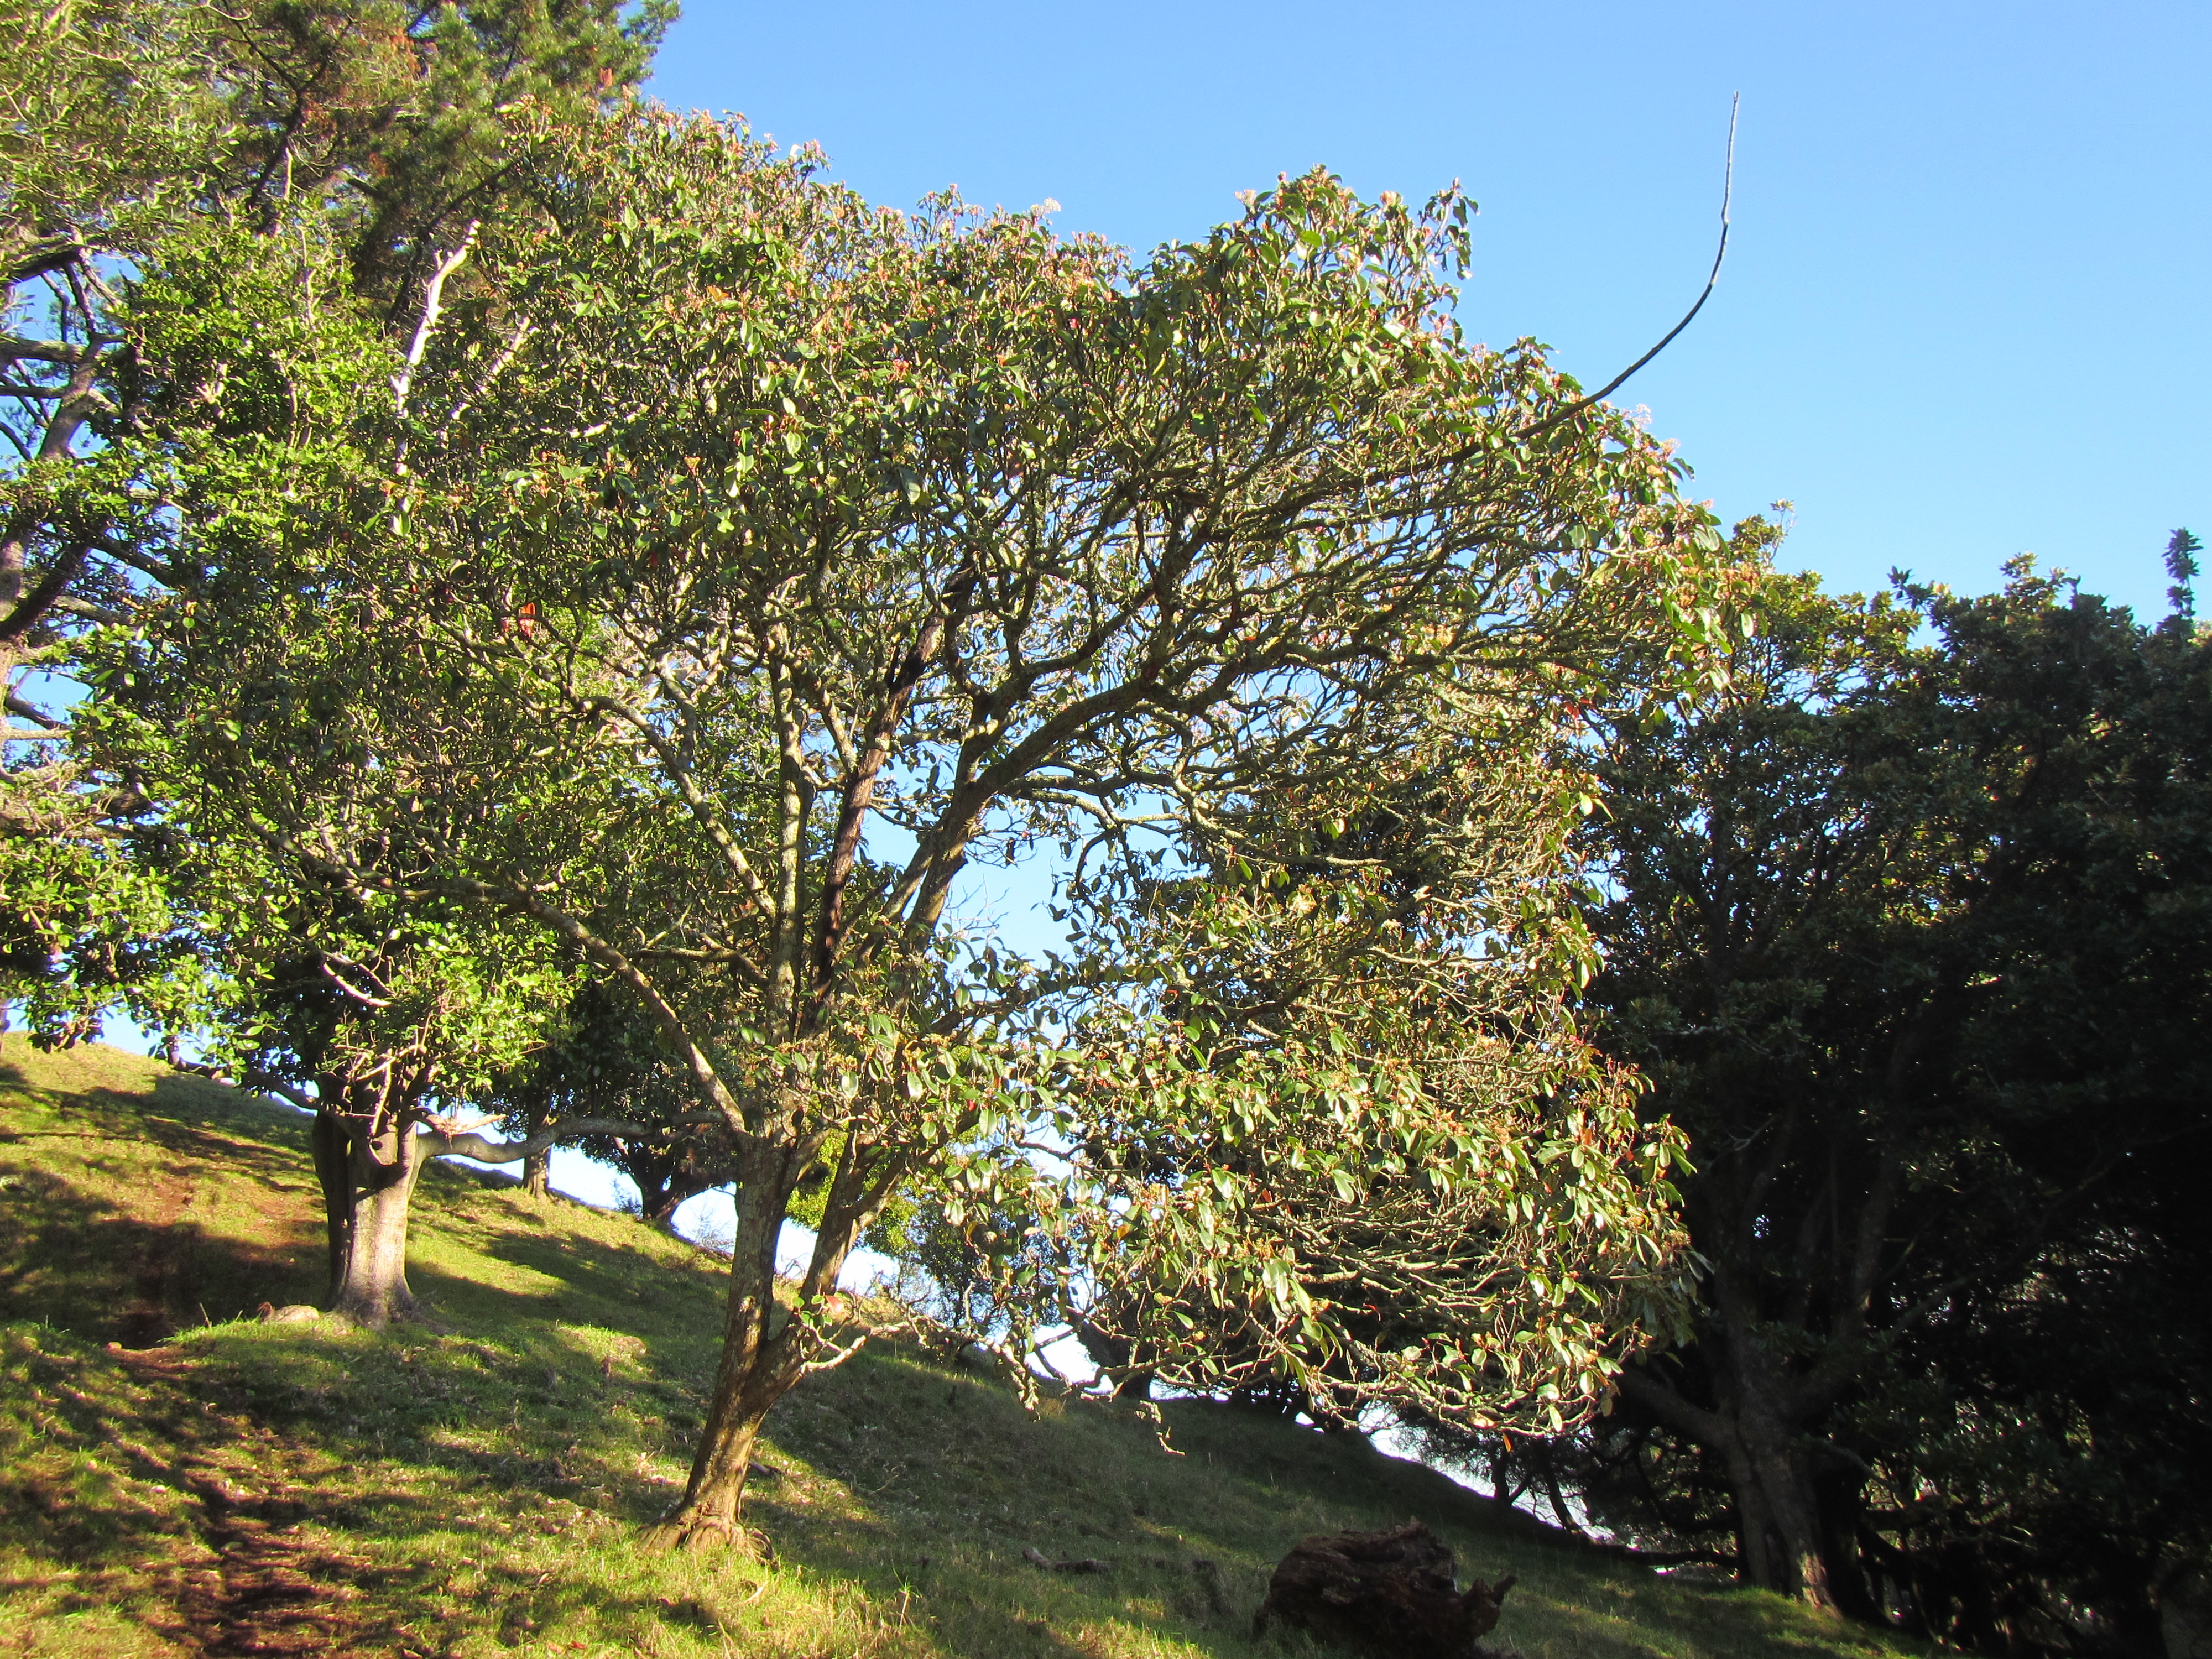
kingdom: Plantae
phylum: Tracheophyta
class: Magnoliopsida
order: Rosales
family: Rosaceae
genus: Photinia
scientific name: Photinia serratifolia
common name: Taiwanese photinia
